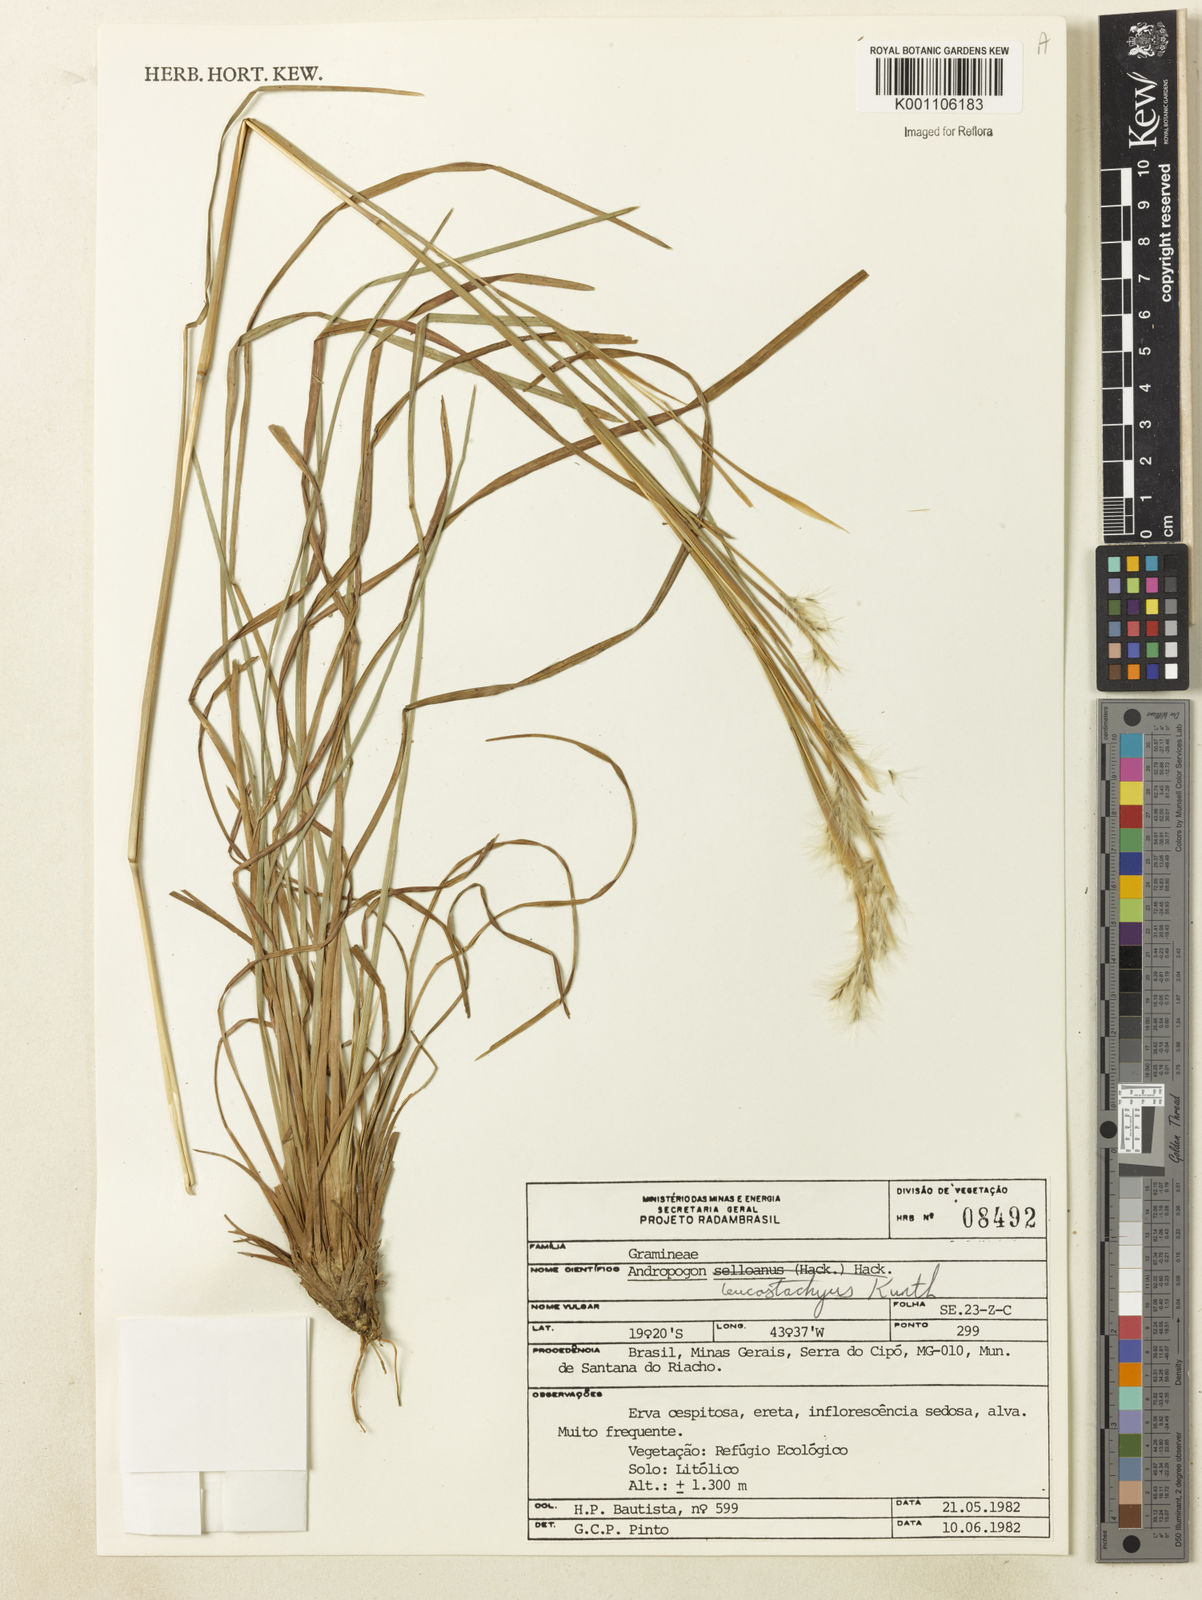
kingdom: Plantae
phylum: Tracheophyta
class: Liliopsida
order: Poales
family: Poaceae
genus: Andropogon
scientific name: Andropogon leucostachyus
